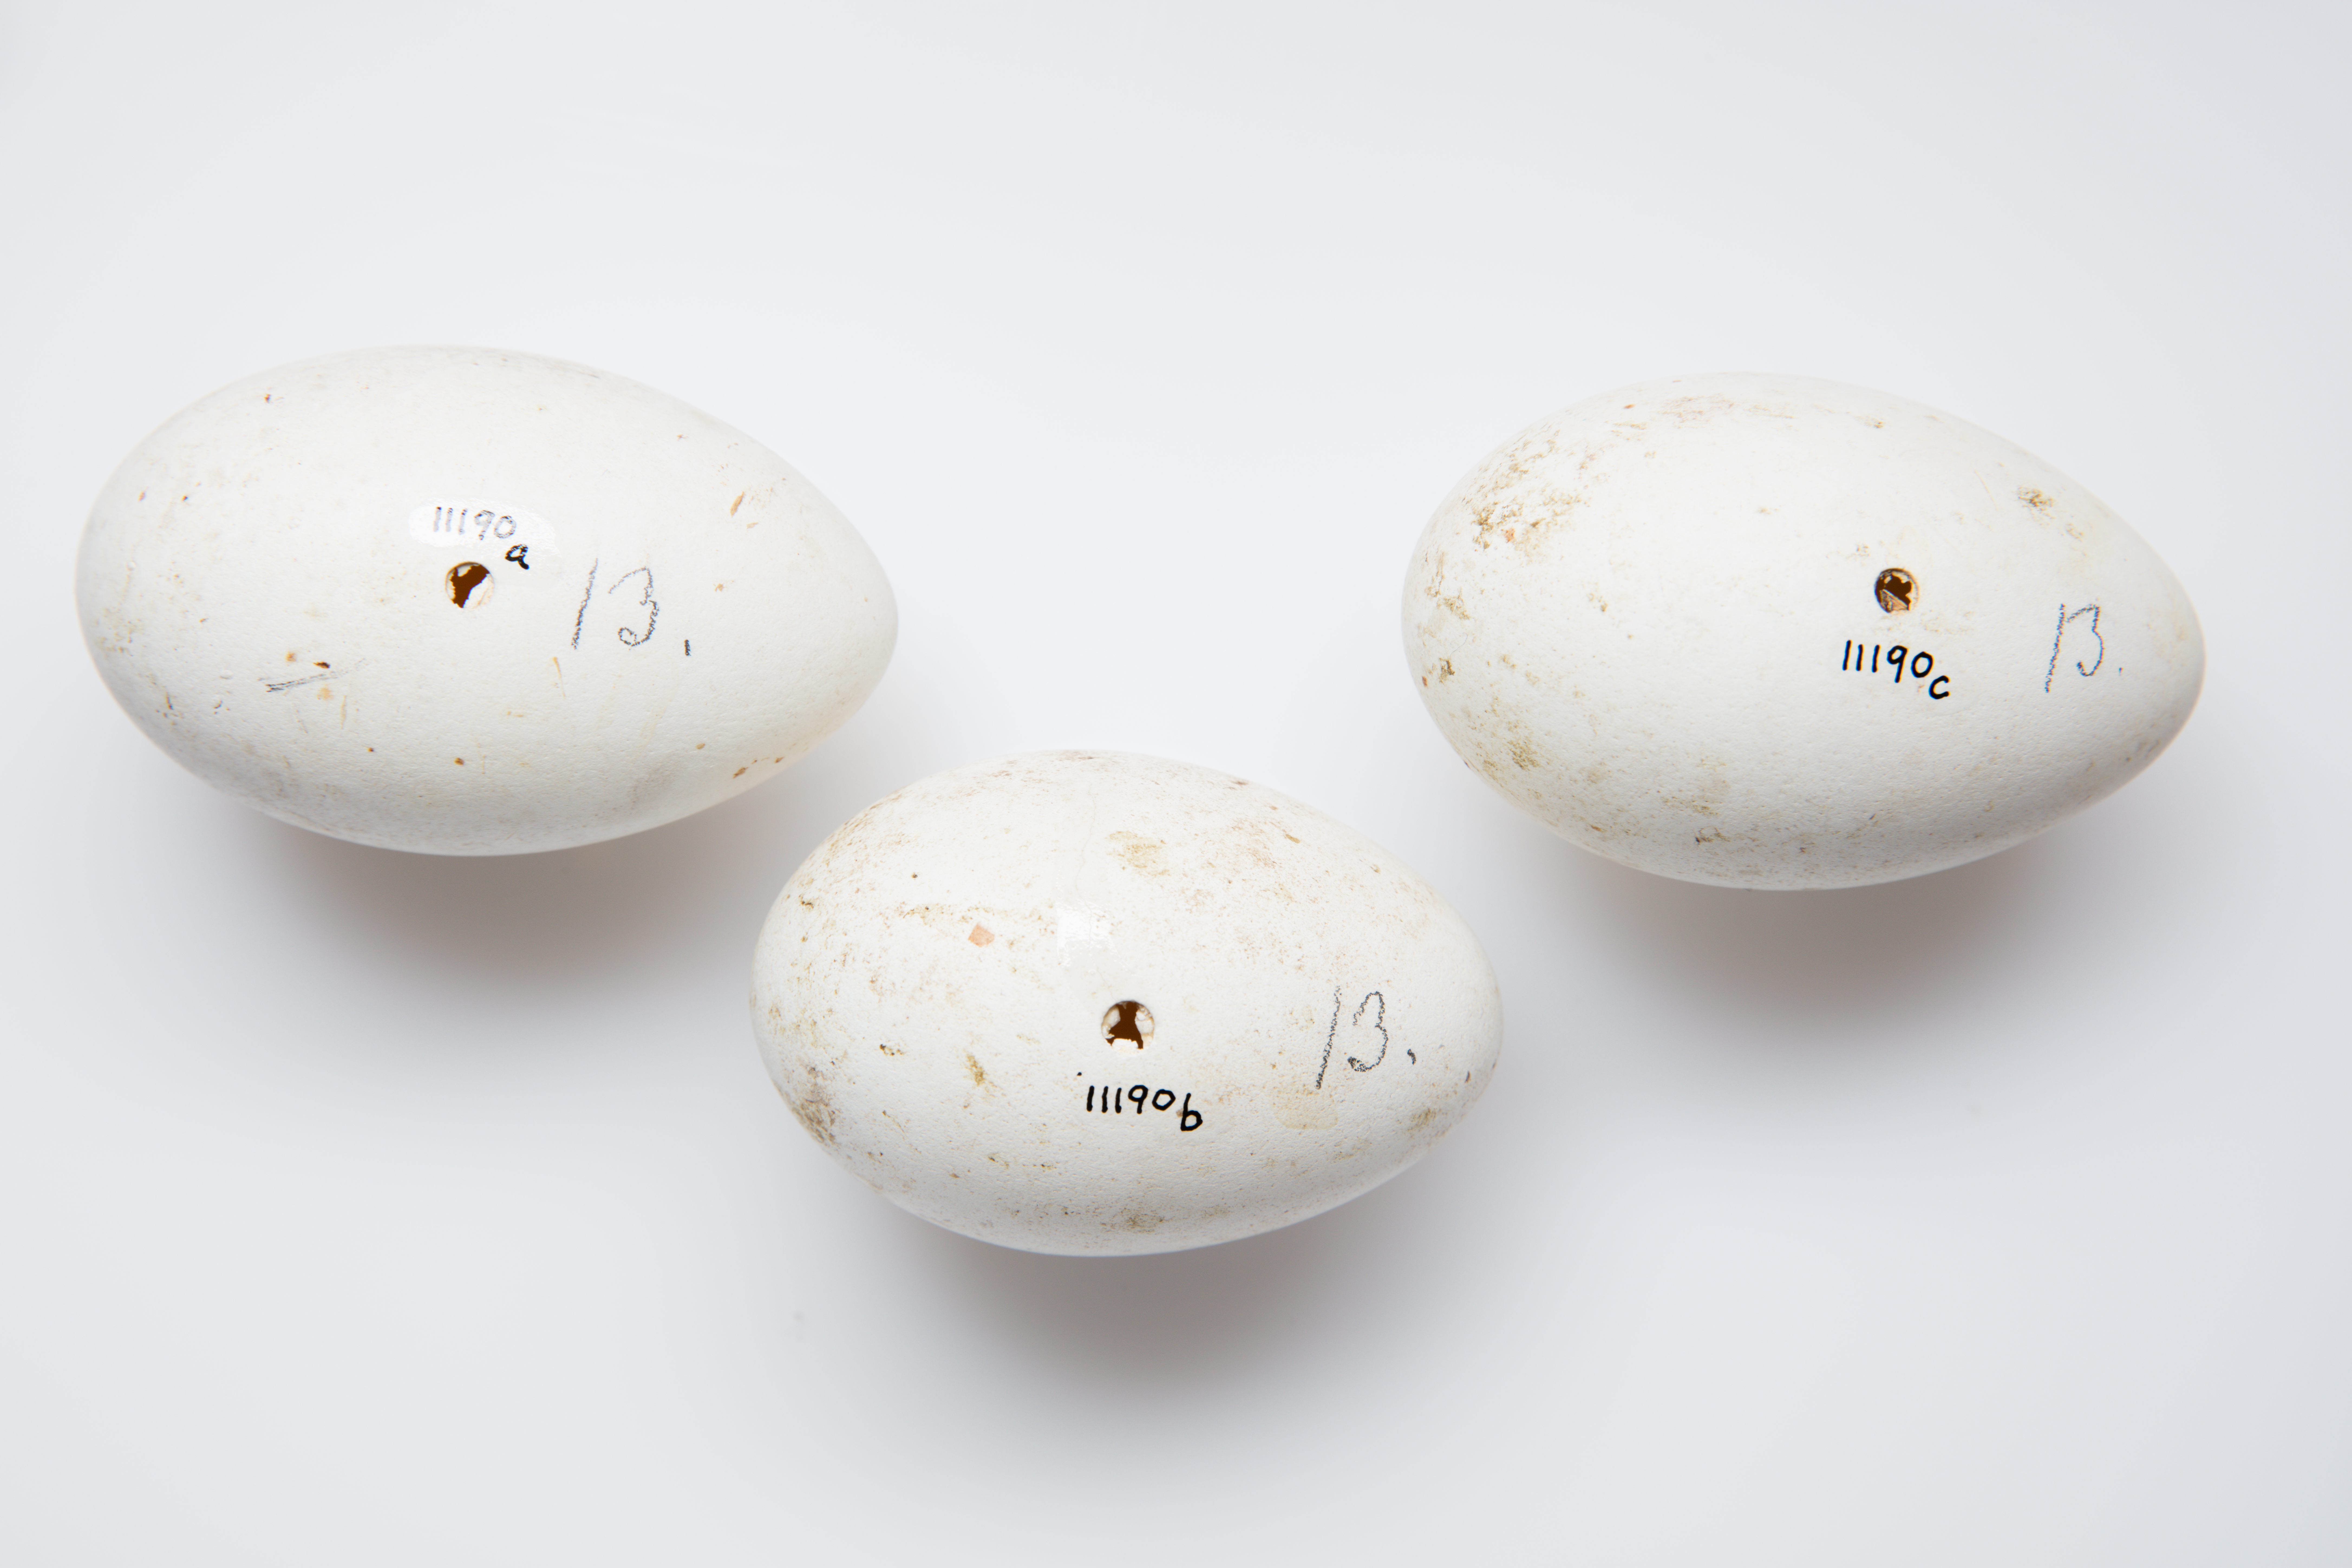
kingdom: Animalia
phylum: Chordata
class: Aves
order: Pelecaniformes
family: Threskiornithidae
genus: Platalea
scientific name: Platalea regia
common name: Royal spoonbill
